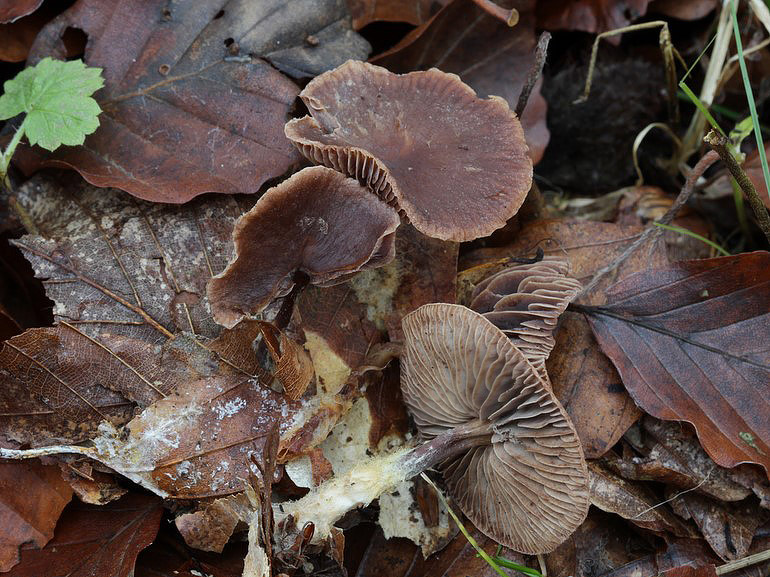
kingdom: Fungi
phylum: Basidiomycota
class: Agaricomycetes
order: Agaricales
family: Omphalotaceae
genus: Gymnopus
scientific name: Gymnopus fuscopurpureus
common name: purpurbrun fladhat
